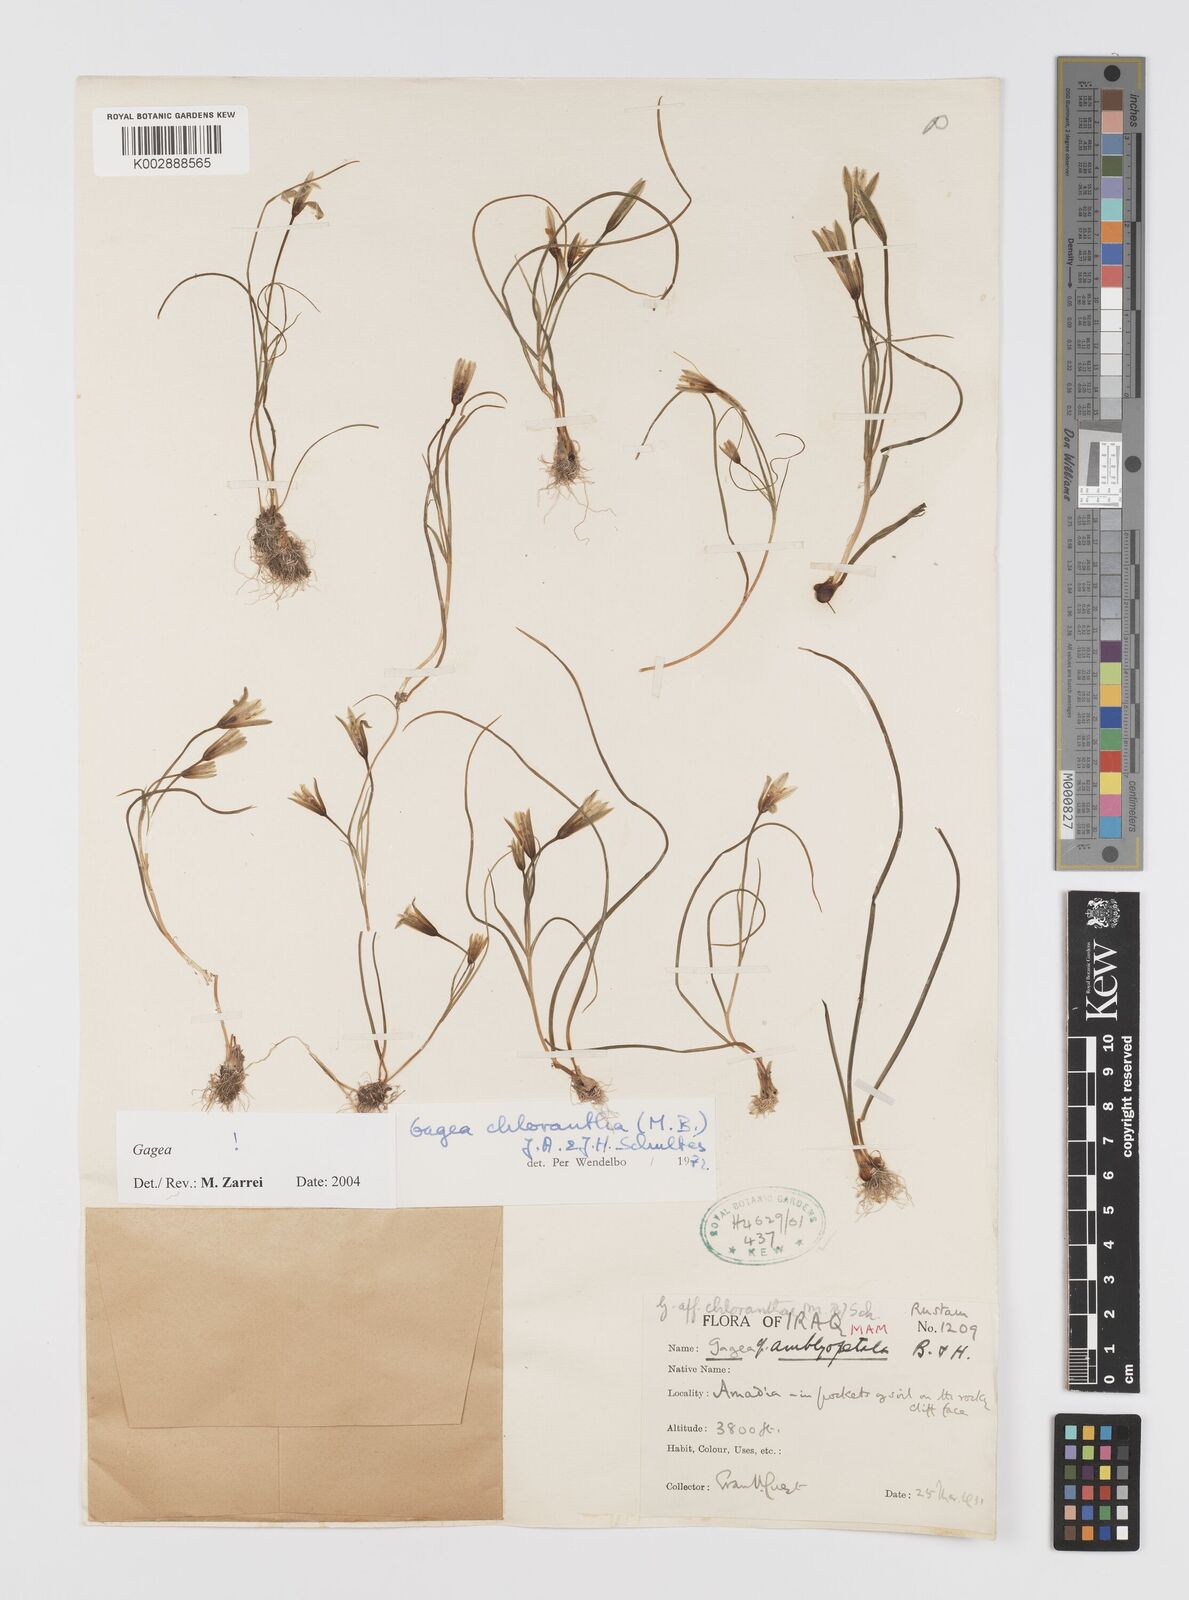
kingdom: Plantae
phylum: Tracheophyta
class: Liliopsida
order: Liliales
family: Liliaceae
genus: Gagea
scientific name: Gagea chlorantha
